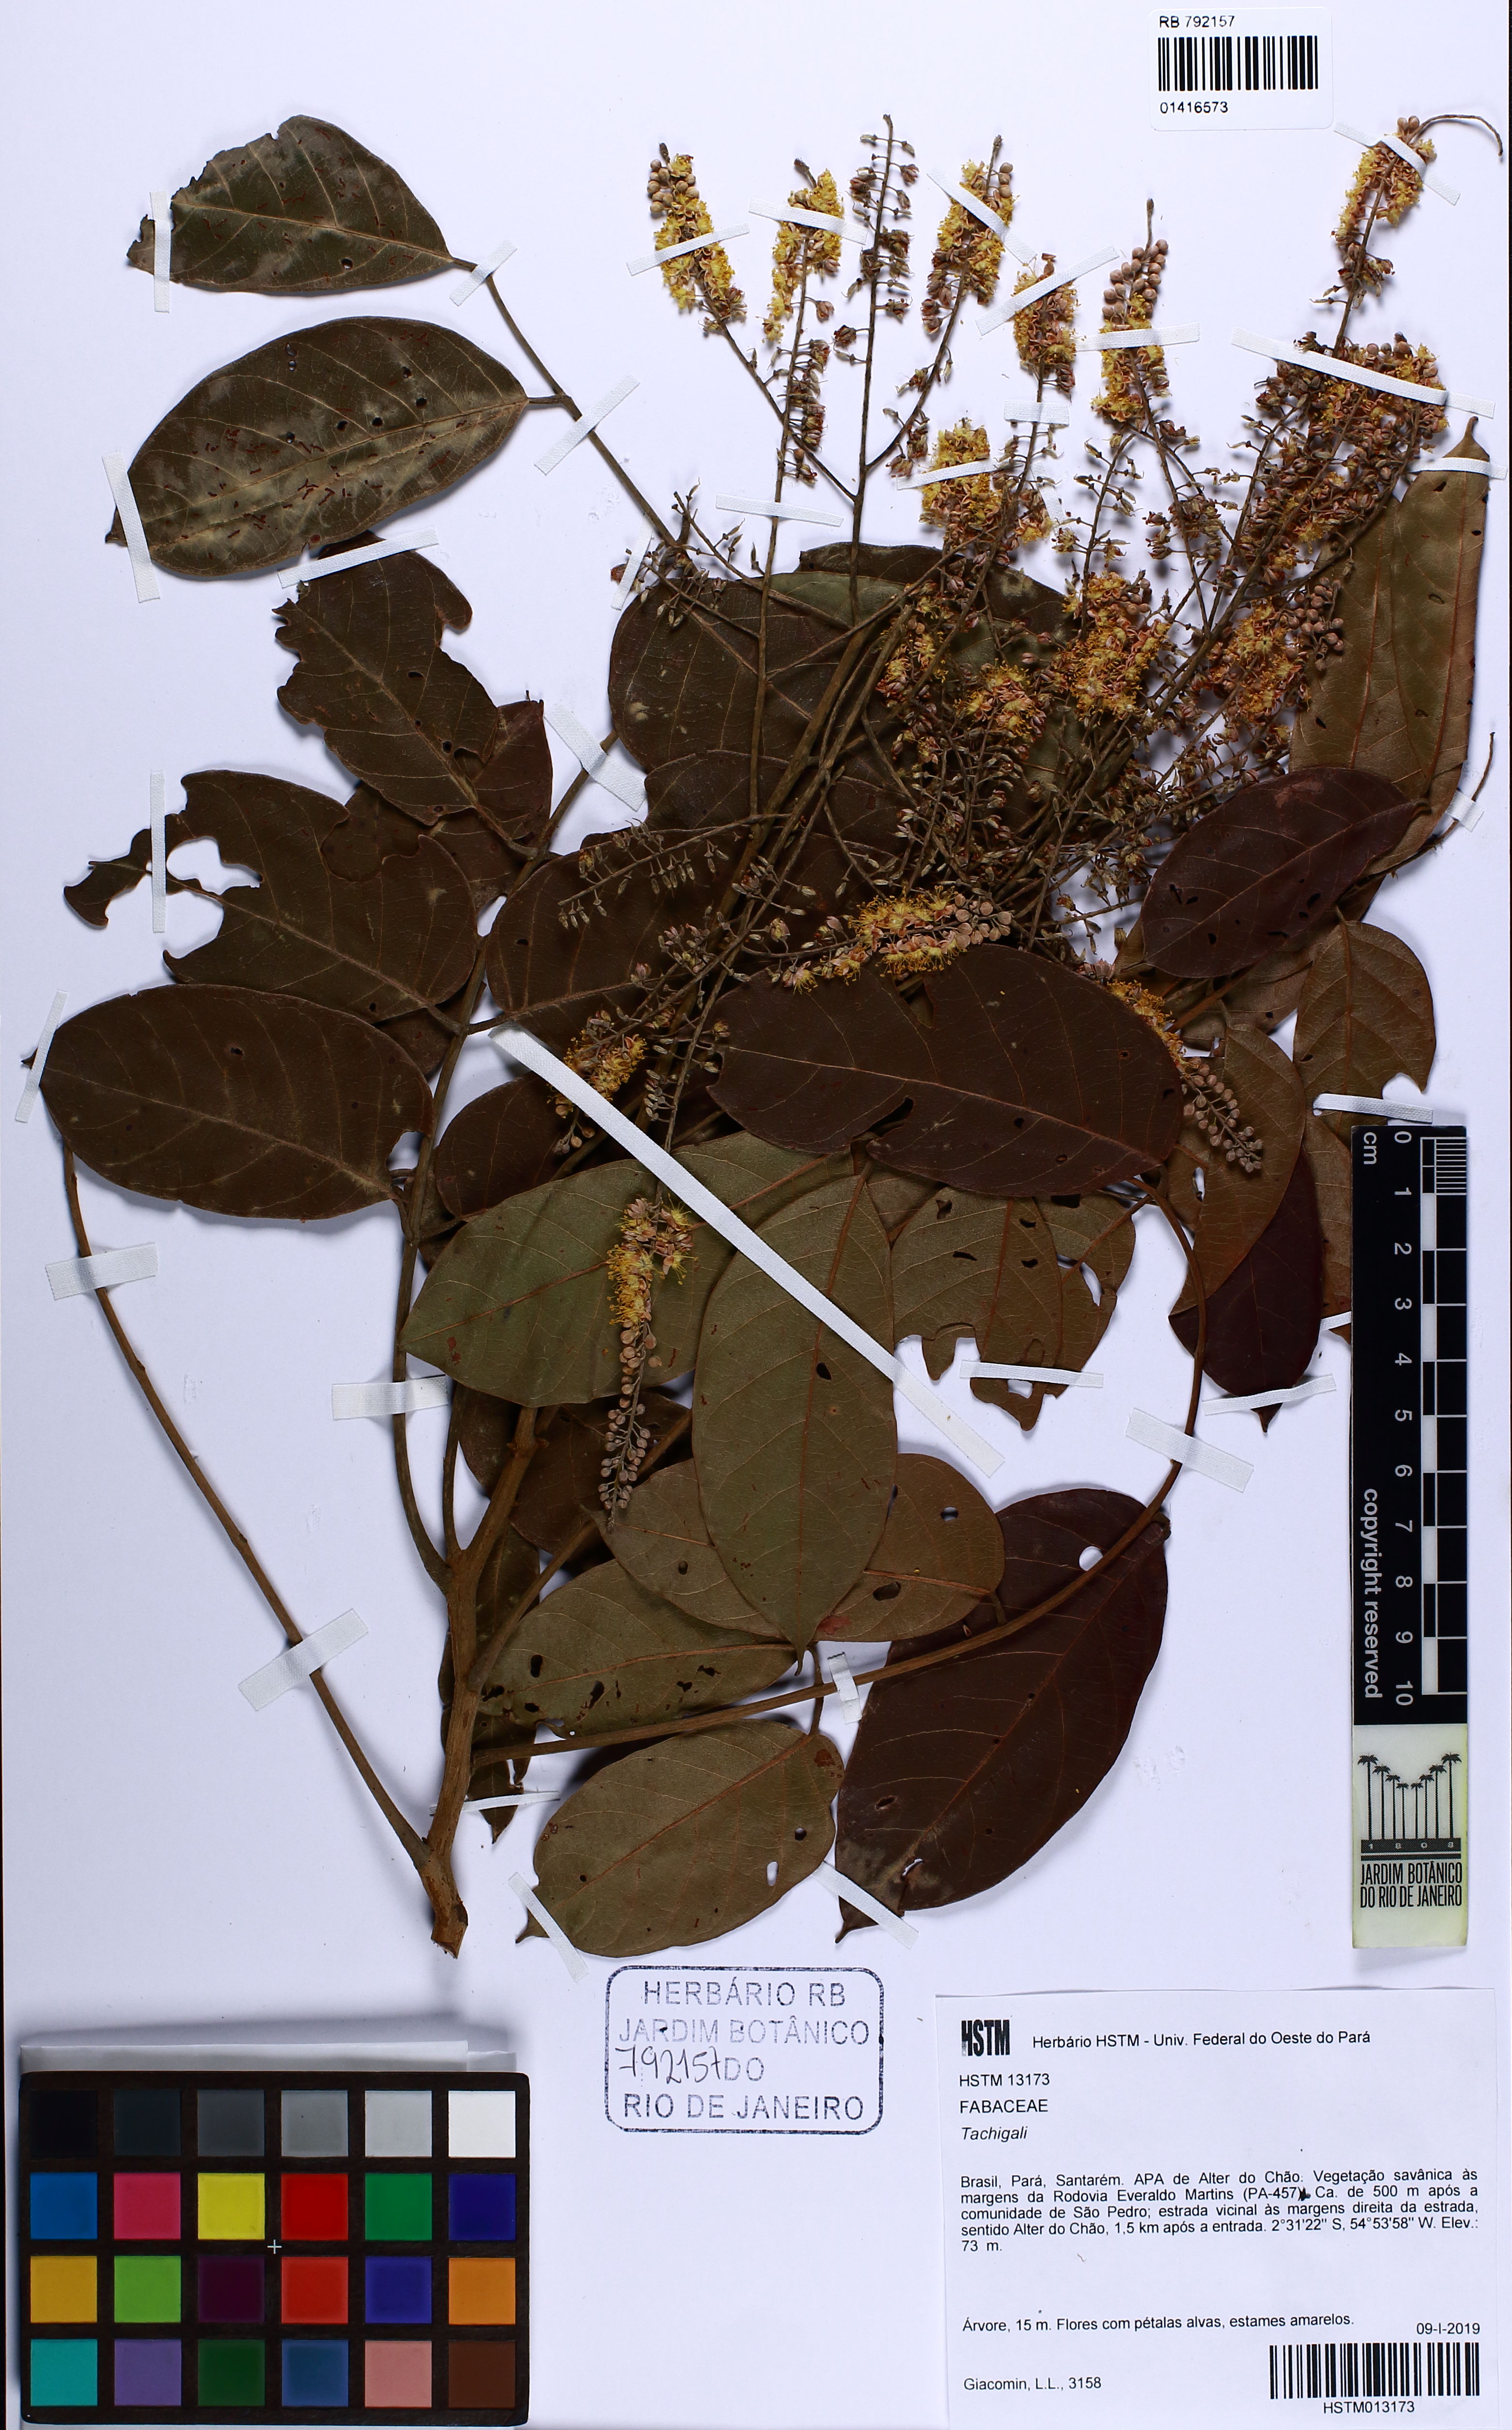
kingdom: Plantae
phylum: Tracheophyta
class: Magnoliopsida
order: Fabales
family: Fabaceae
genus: Tachigali
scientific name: Tachigali vulgaris
